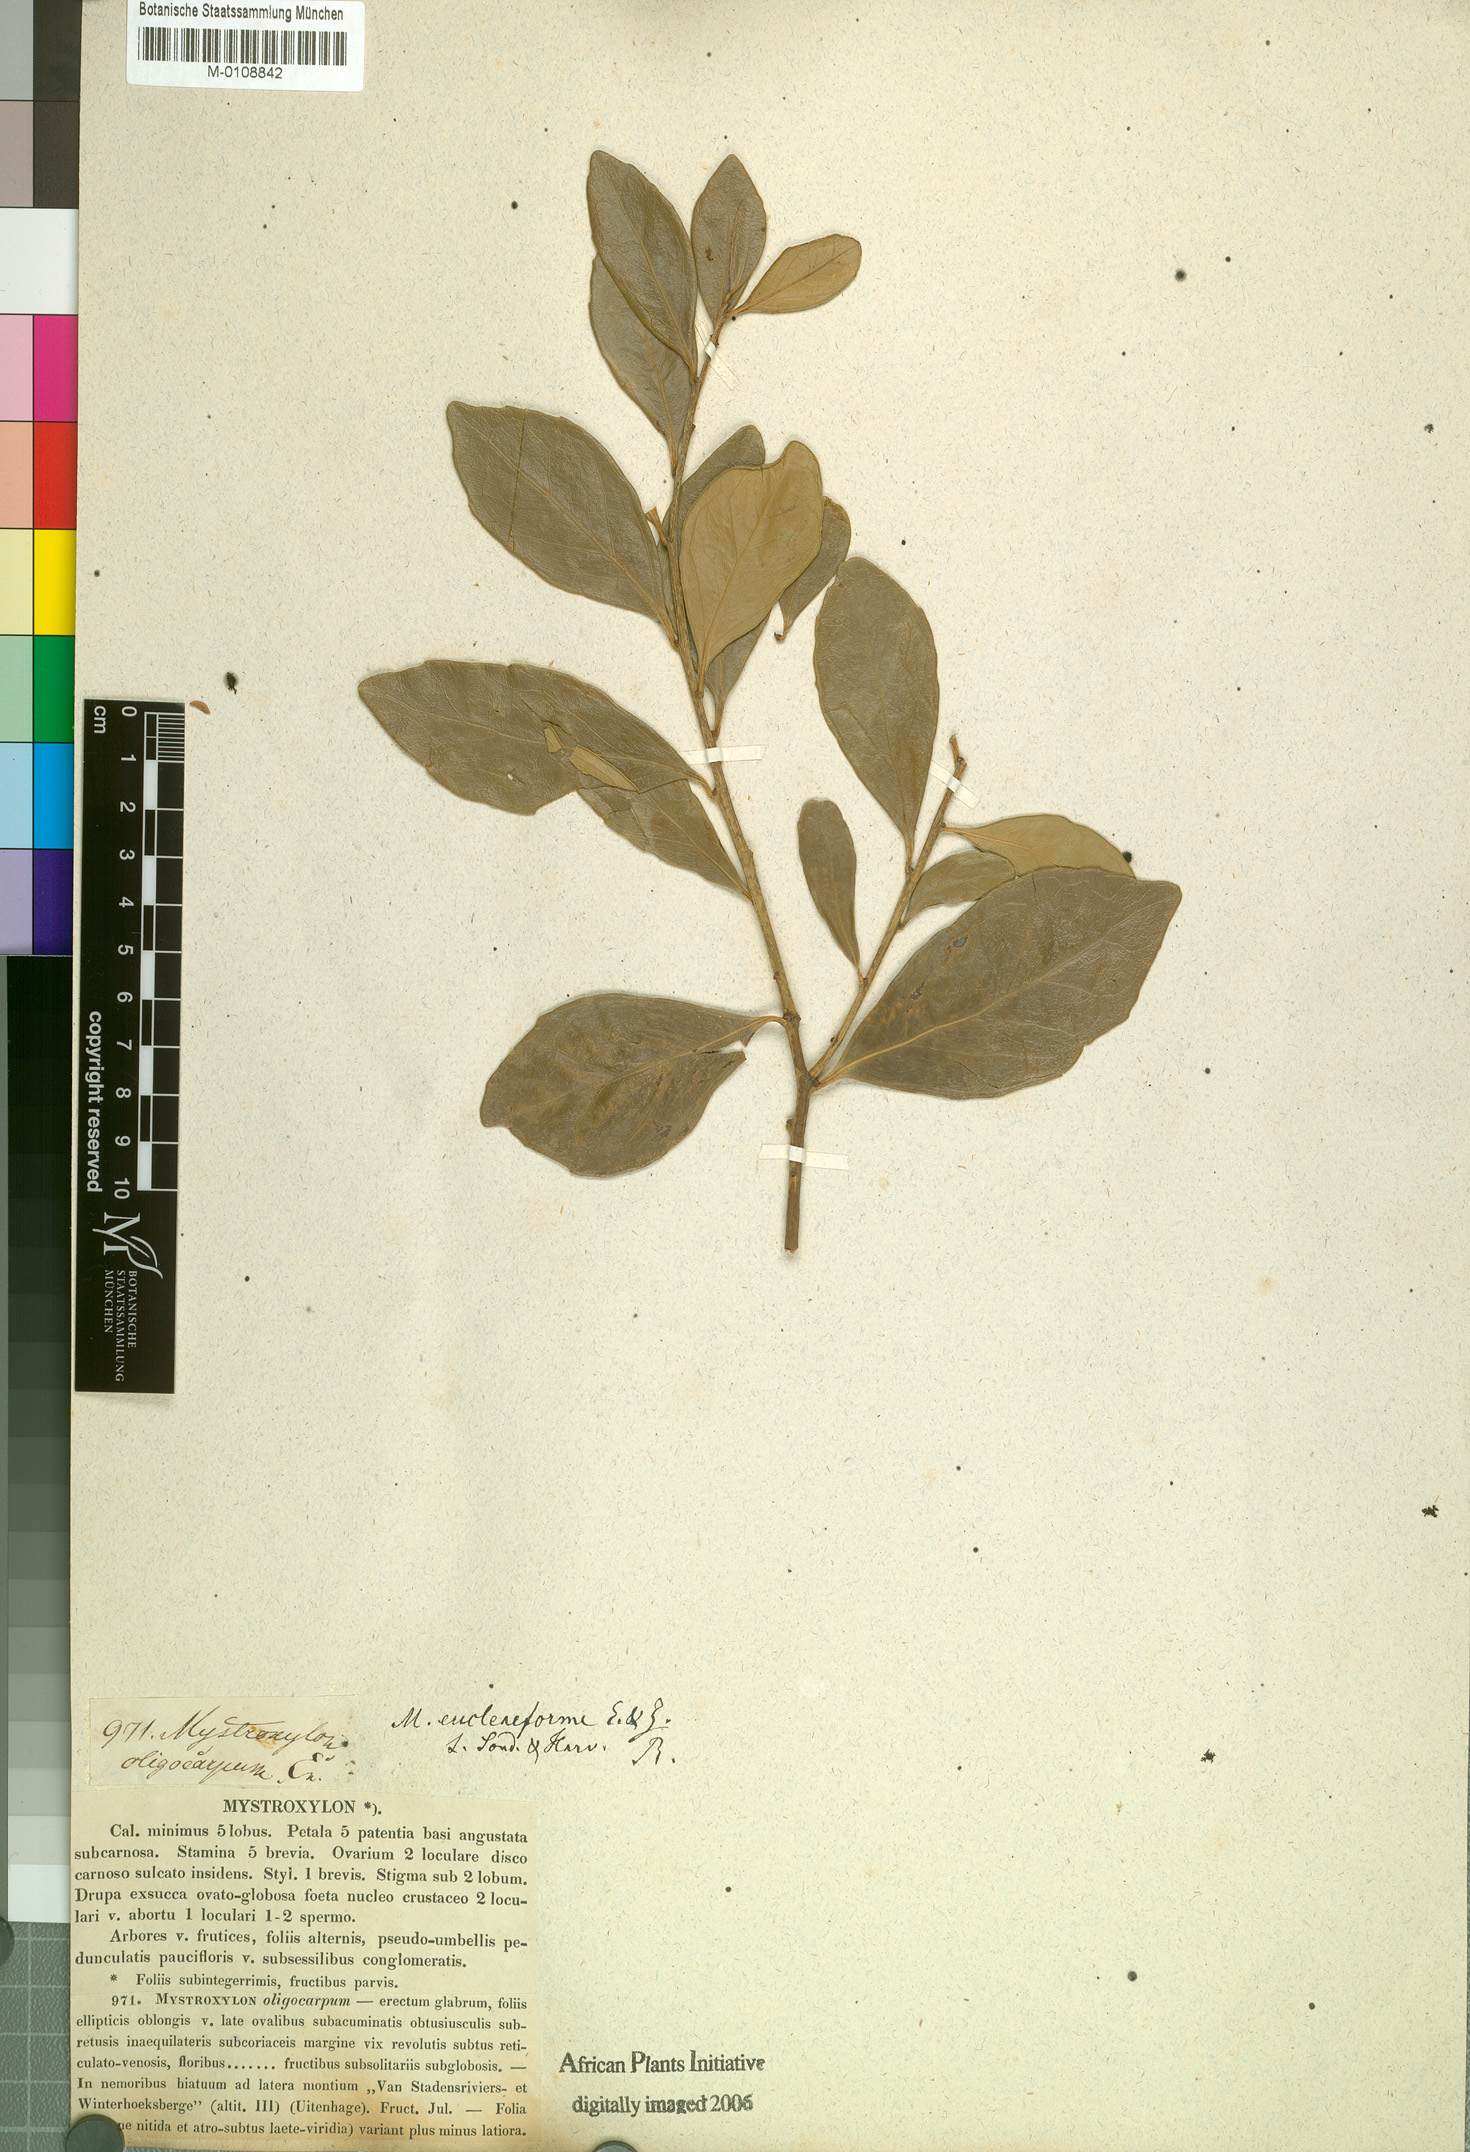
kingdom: Plantae
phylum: Tracheophyta
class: Magnoliopsida
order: Celastrales
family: Celastraceae
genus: Robsonodendron
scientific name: Robsonodendron eucleiforme
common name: Mock silky-bark
